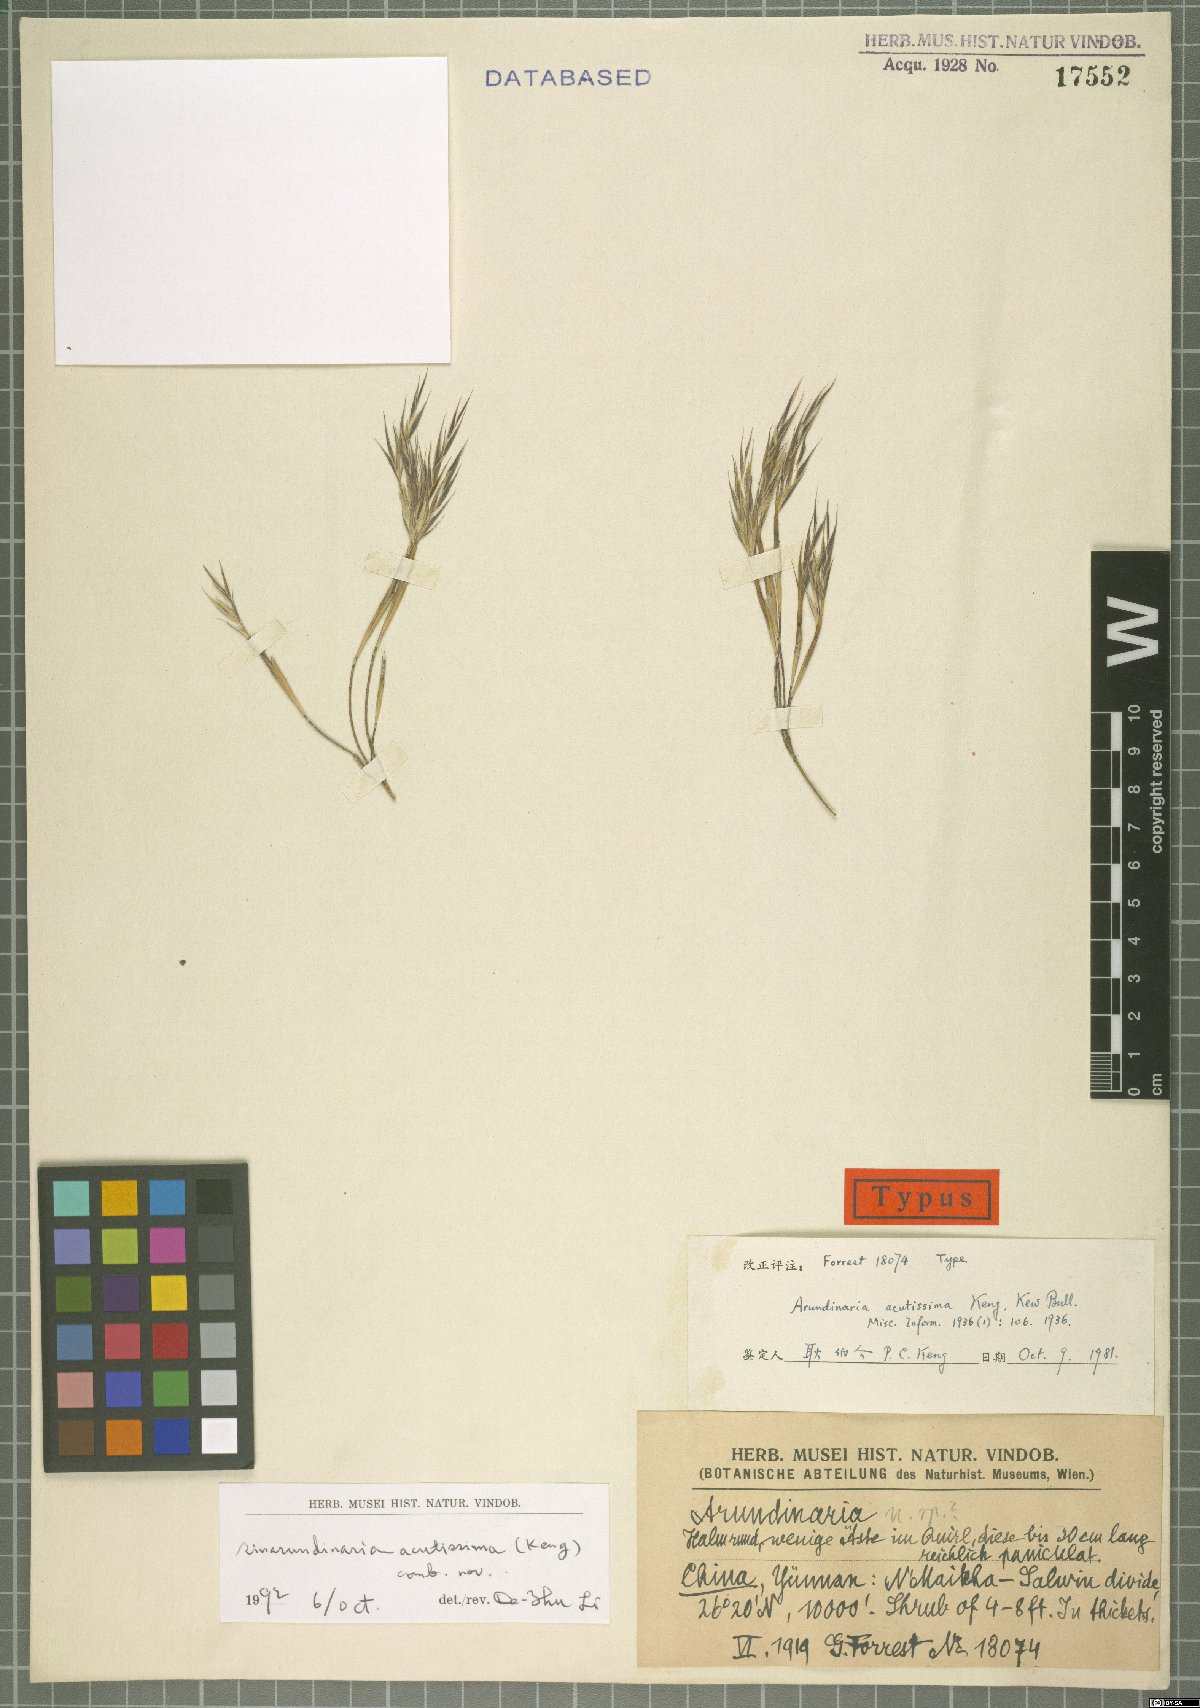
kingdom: Plantae
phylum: Tracheophyta
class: Liliopsida
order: Poales
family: Poaceae
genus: Fargesia
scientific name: Fargesia melanostachys
